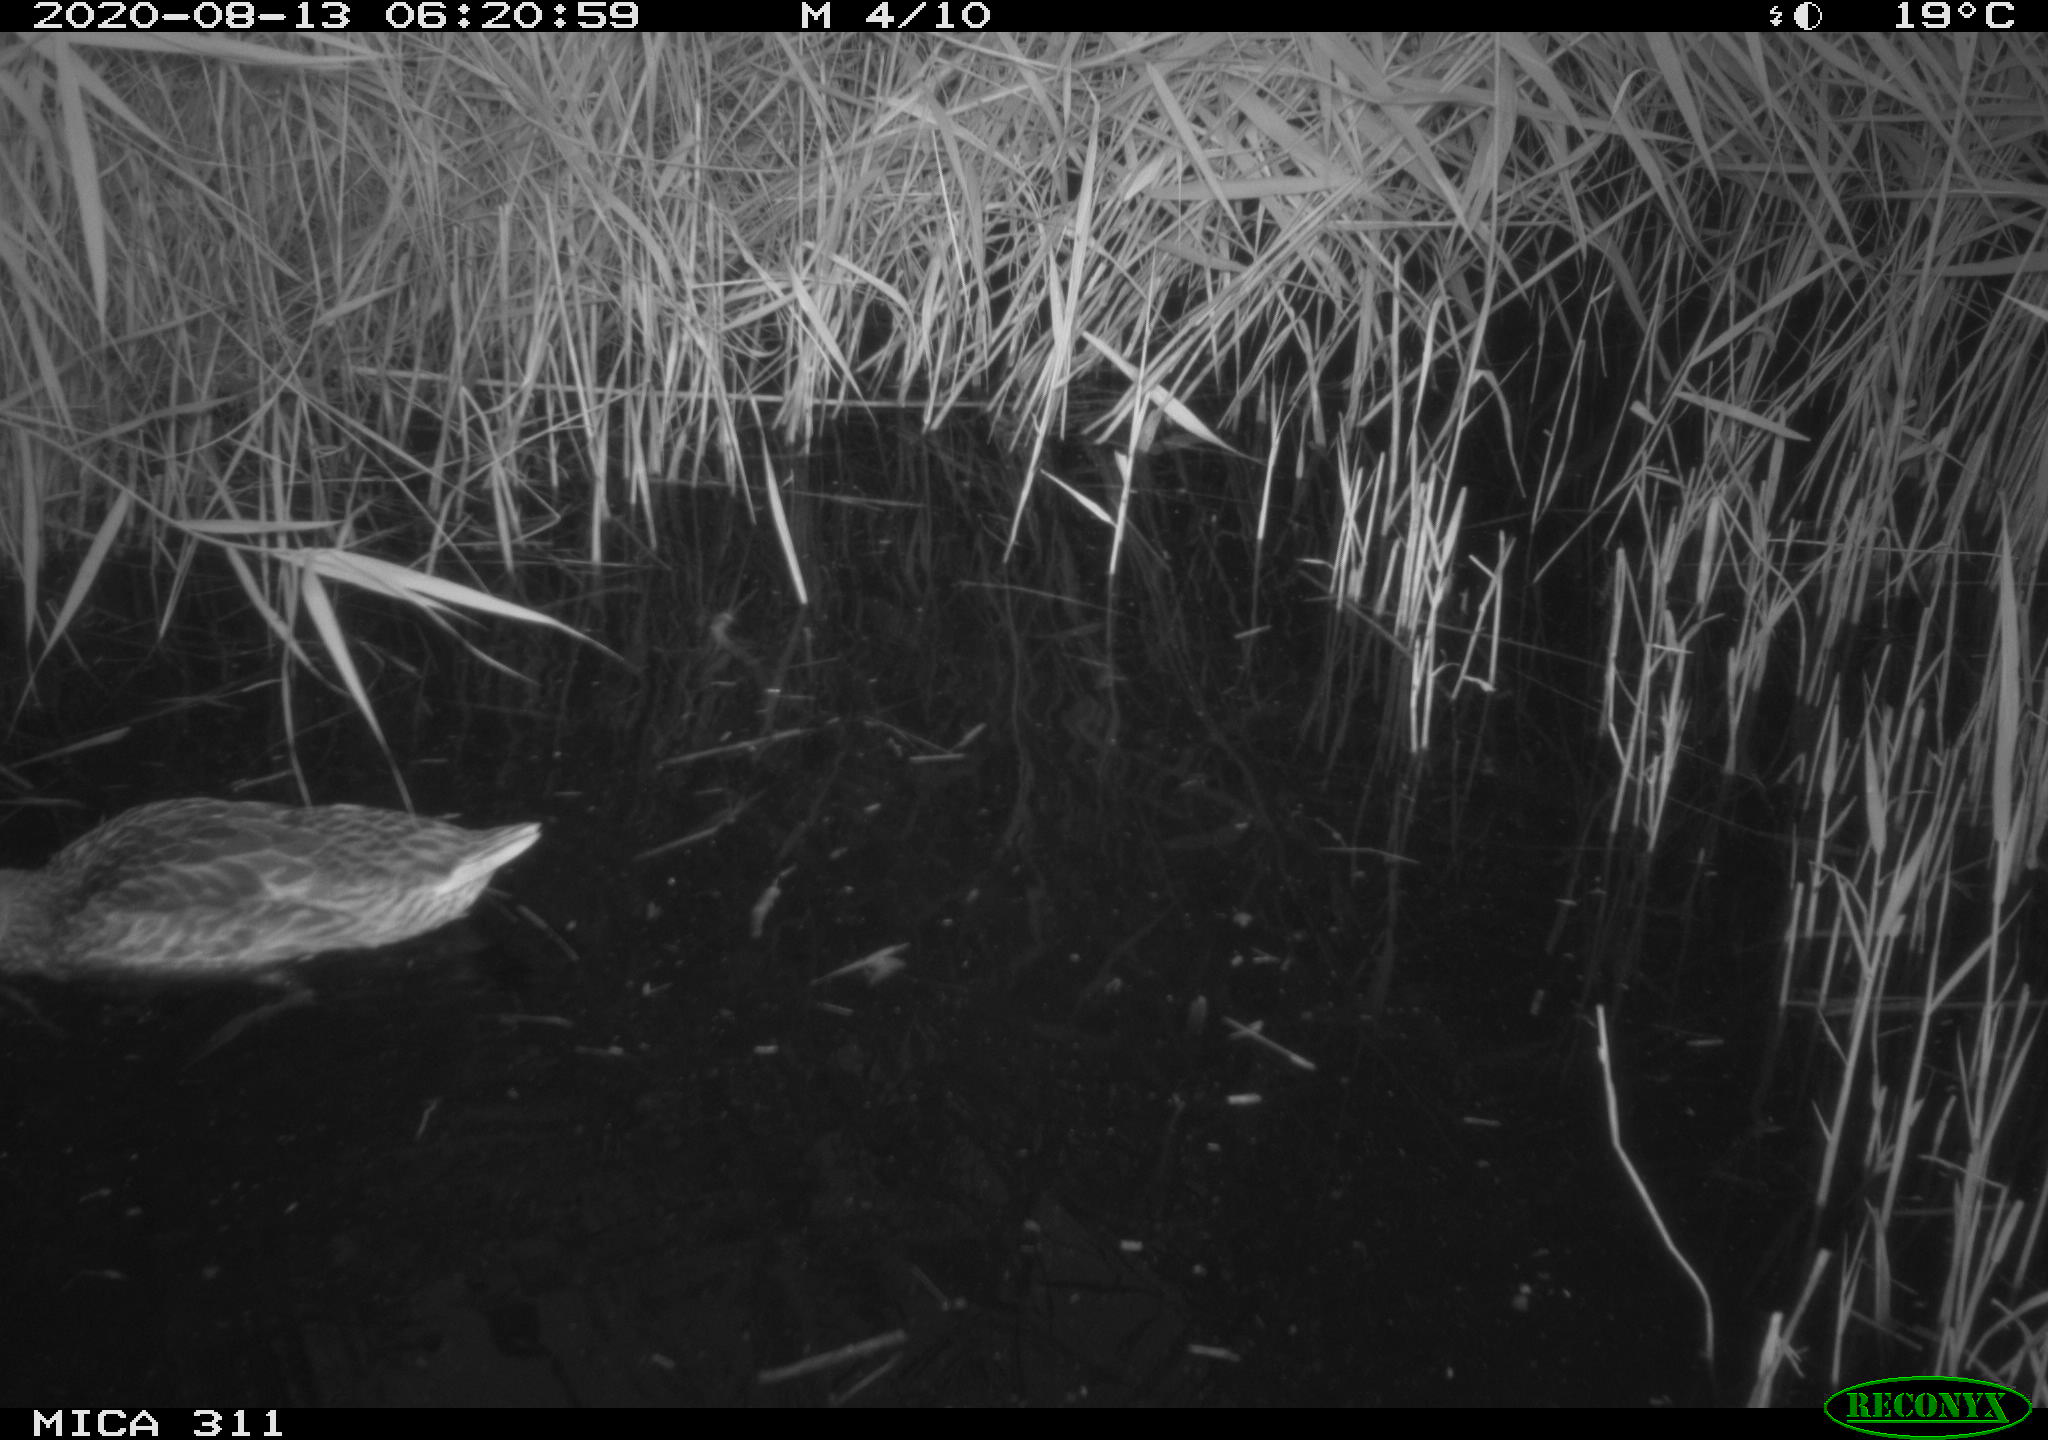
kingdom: Animalia
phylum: Chordata
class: Aves
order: Anseriformes
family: Anatidae
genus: Anas
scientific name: Anas platyrhynchos
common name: Mallard
